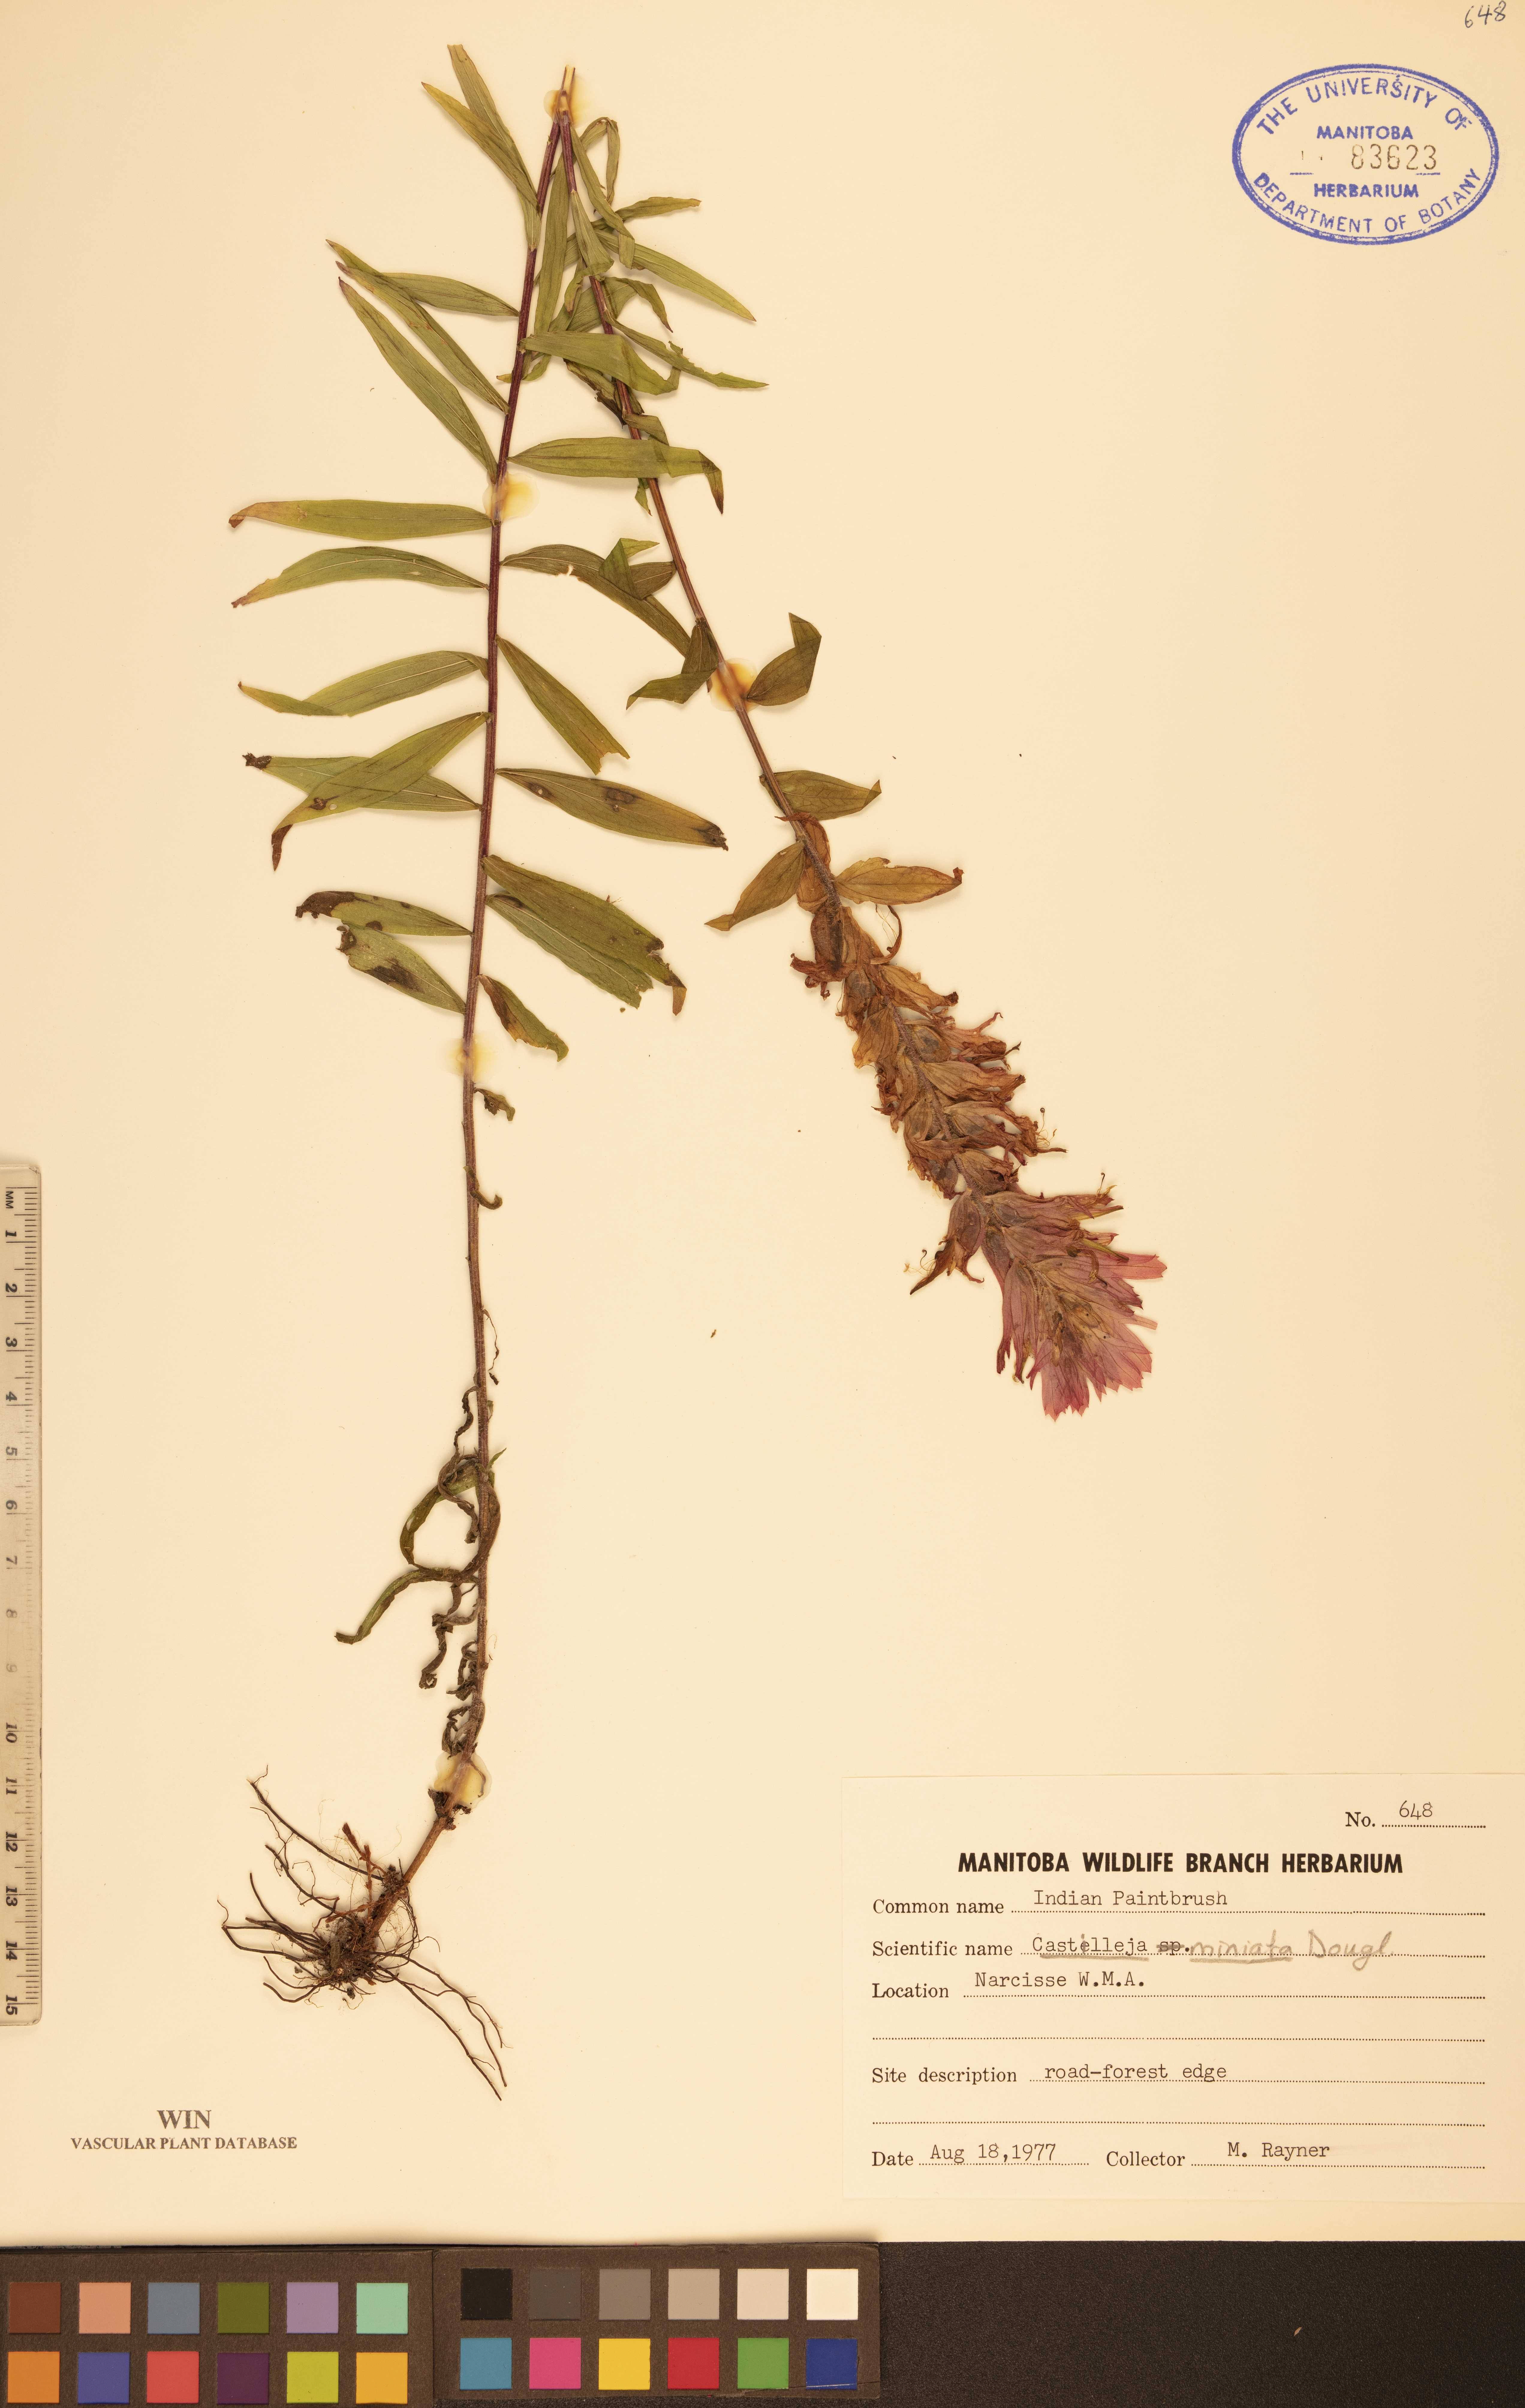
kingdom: Plantae
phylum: Tracheophyta
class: Magnoliopsida
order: Lamiales
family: Orobanchaceae
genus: Castilleja
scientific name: Castilleja miniata
